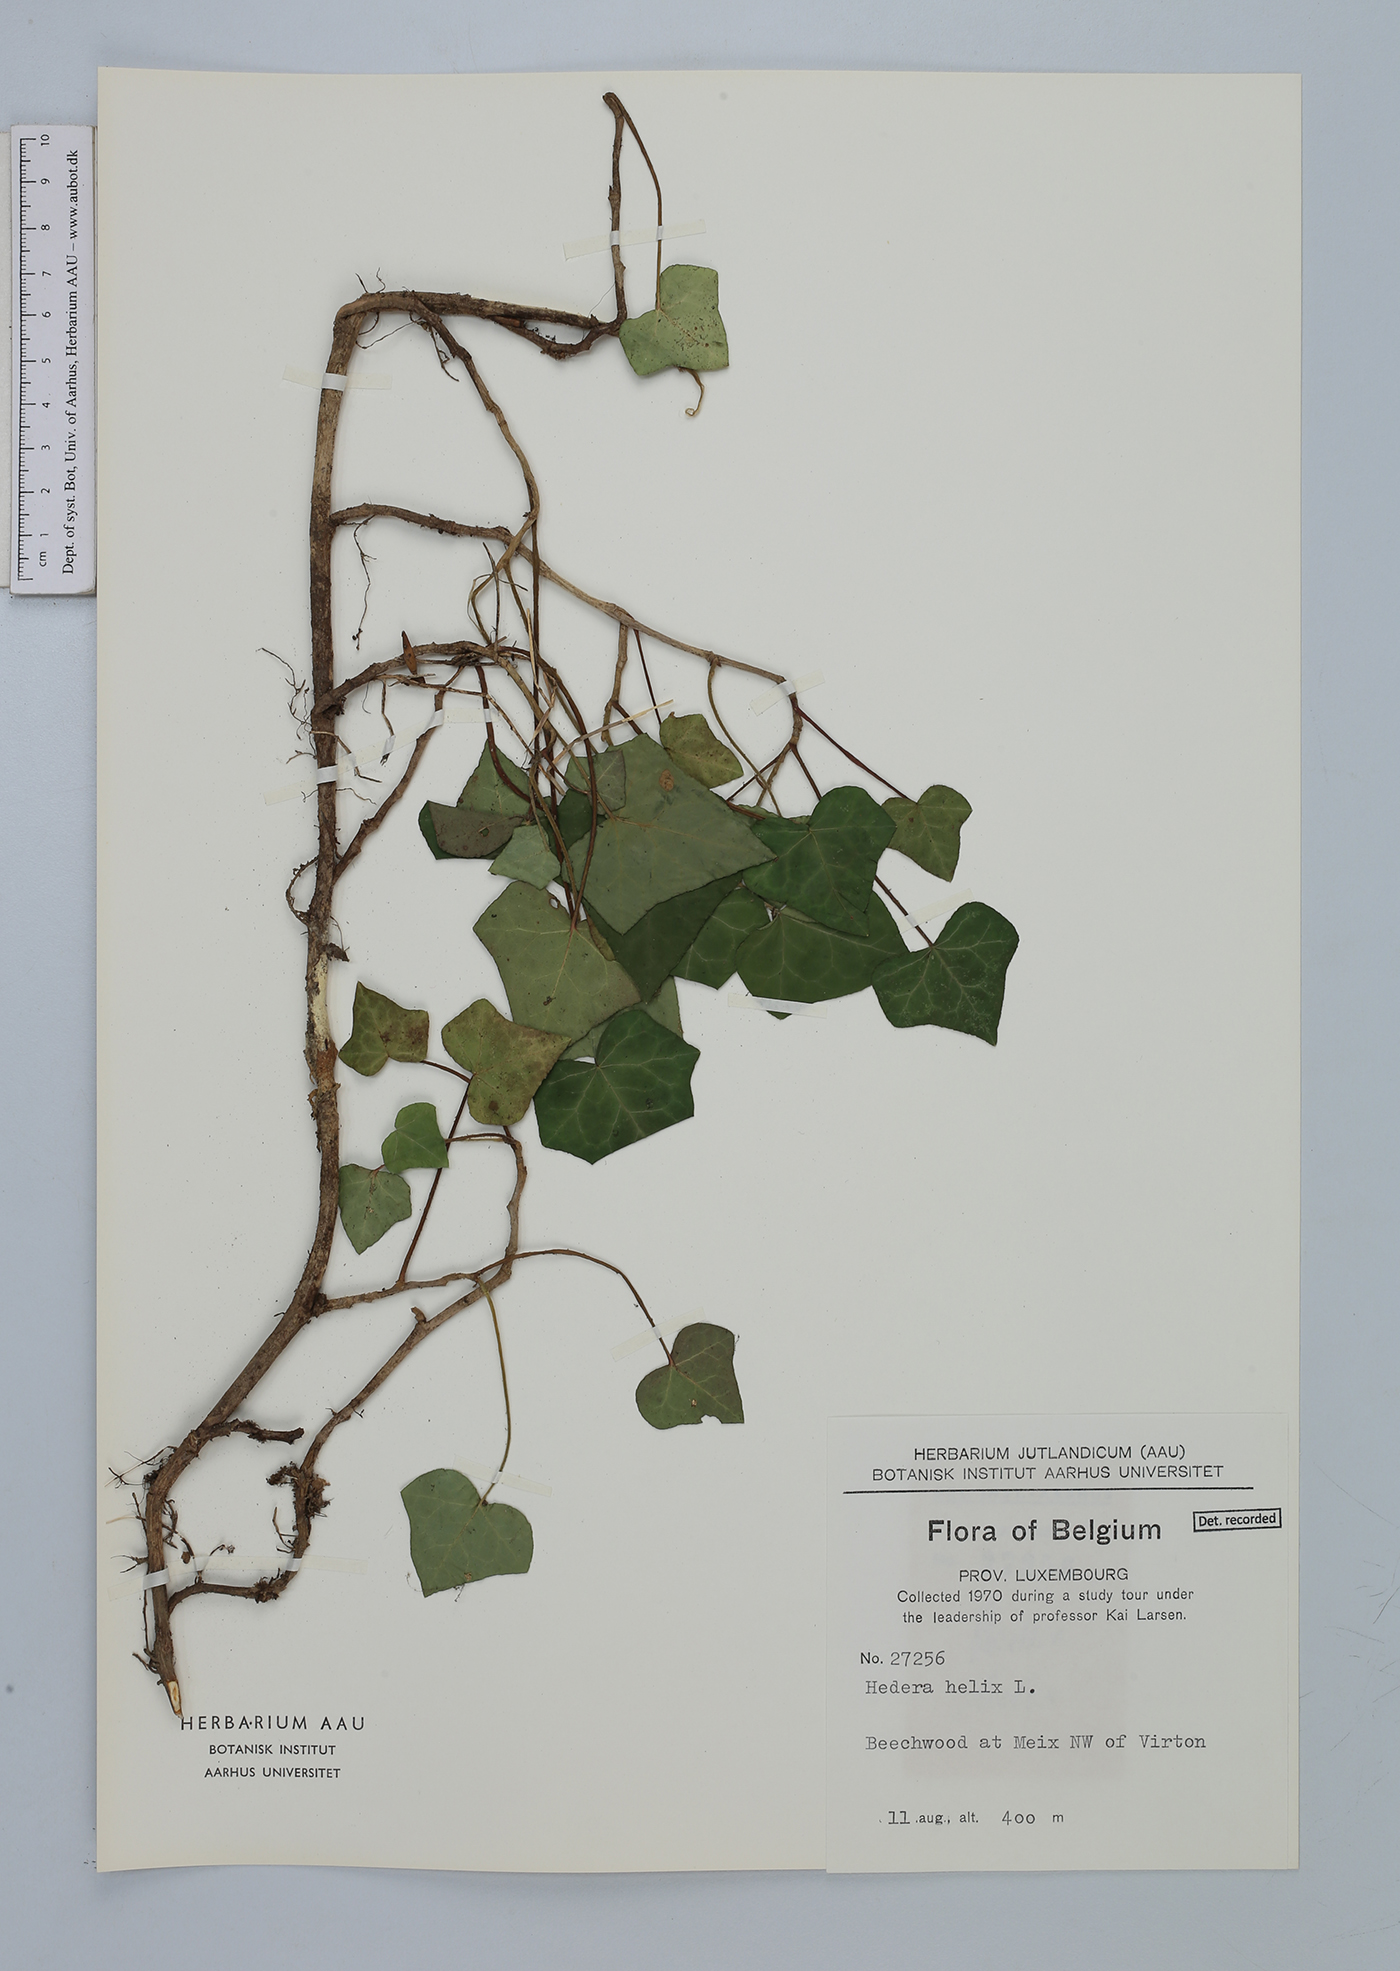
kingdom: Plantae
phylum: Tracheophyta
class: Magnoliopsida
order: Apiales
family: Araliaceae
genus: Hedera
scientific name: Hedera helix
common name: Ivy
